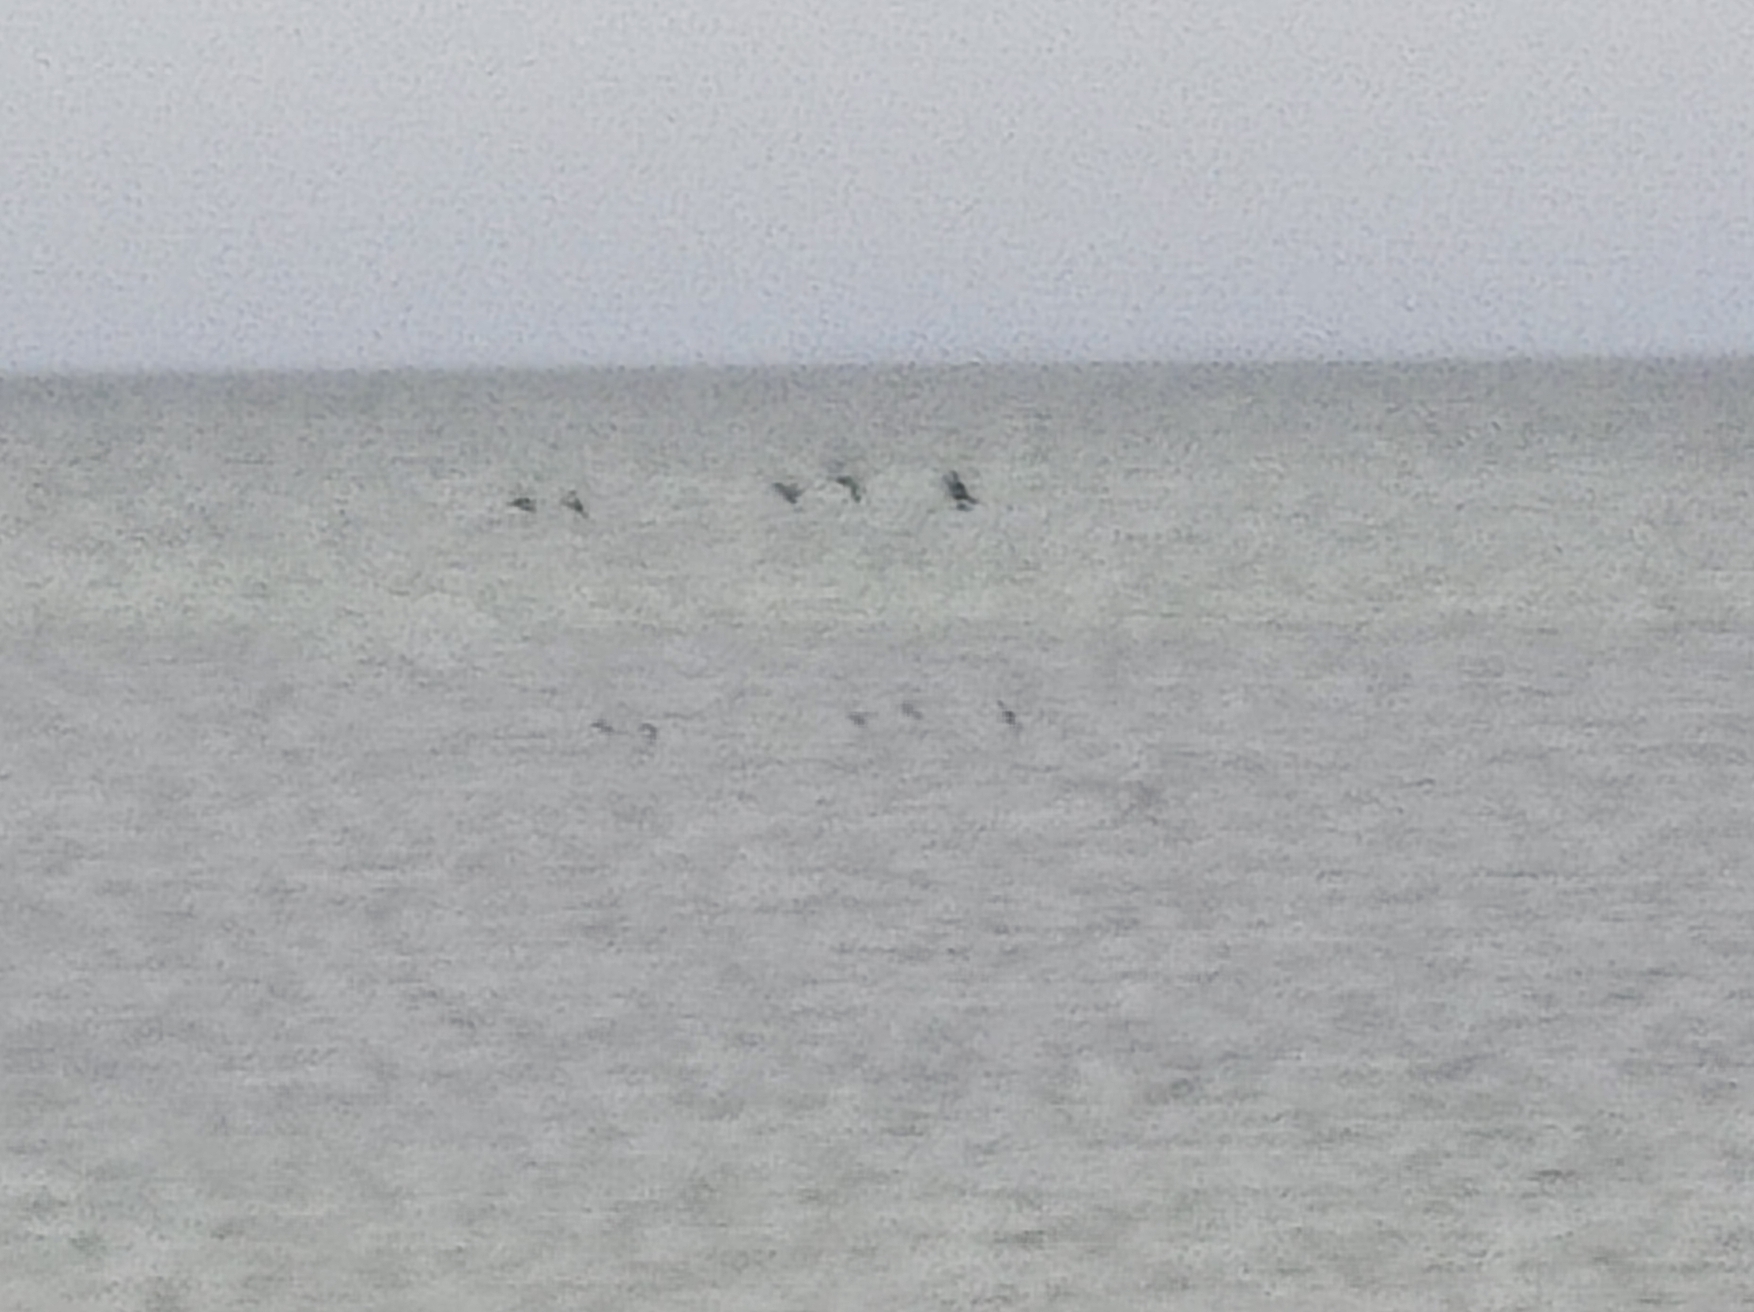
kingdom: Animalia
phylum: Chordata
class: Aves
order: Anseriformes
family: Anatidae
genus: Melanitta
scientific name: Melanitta nigra
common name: Sortand
